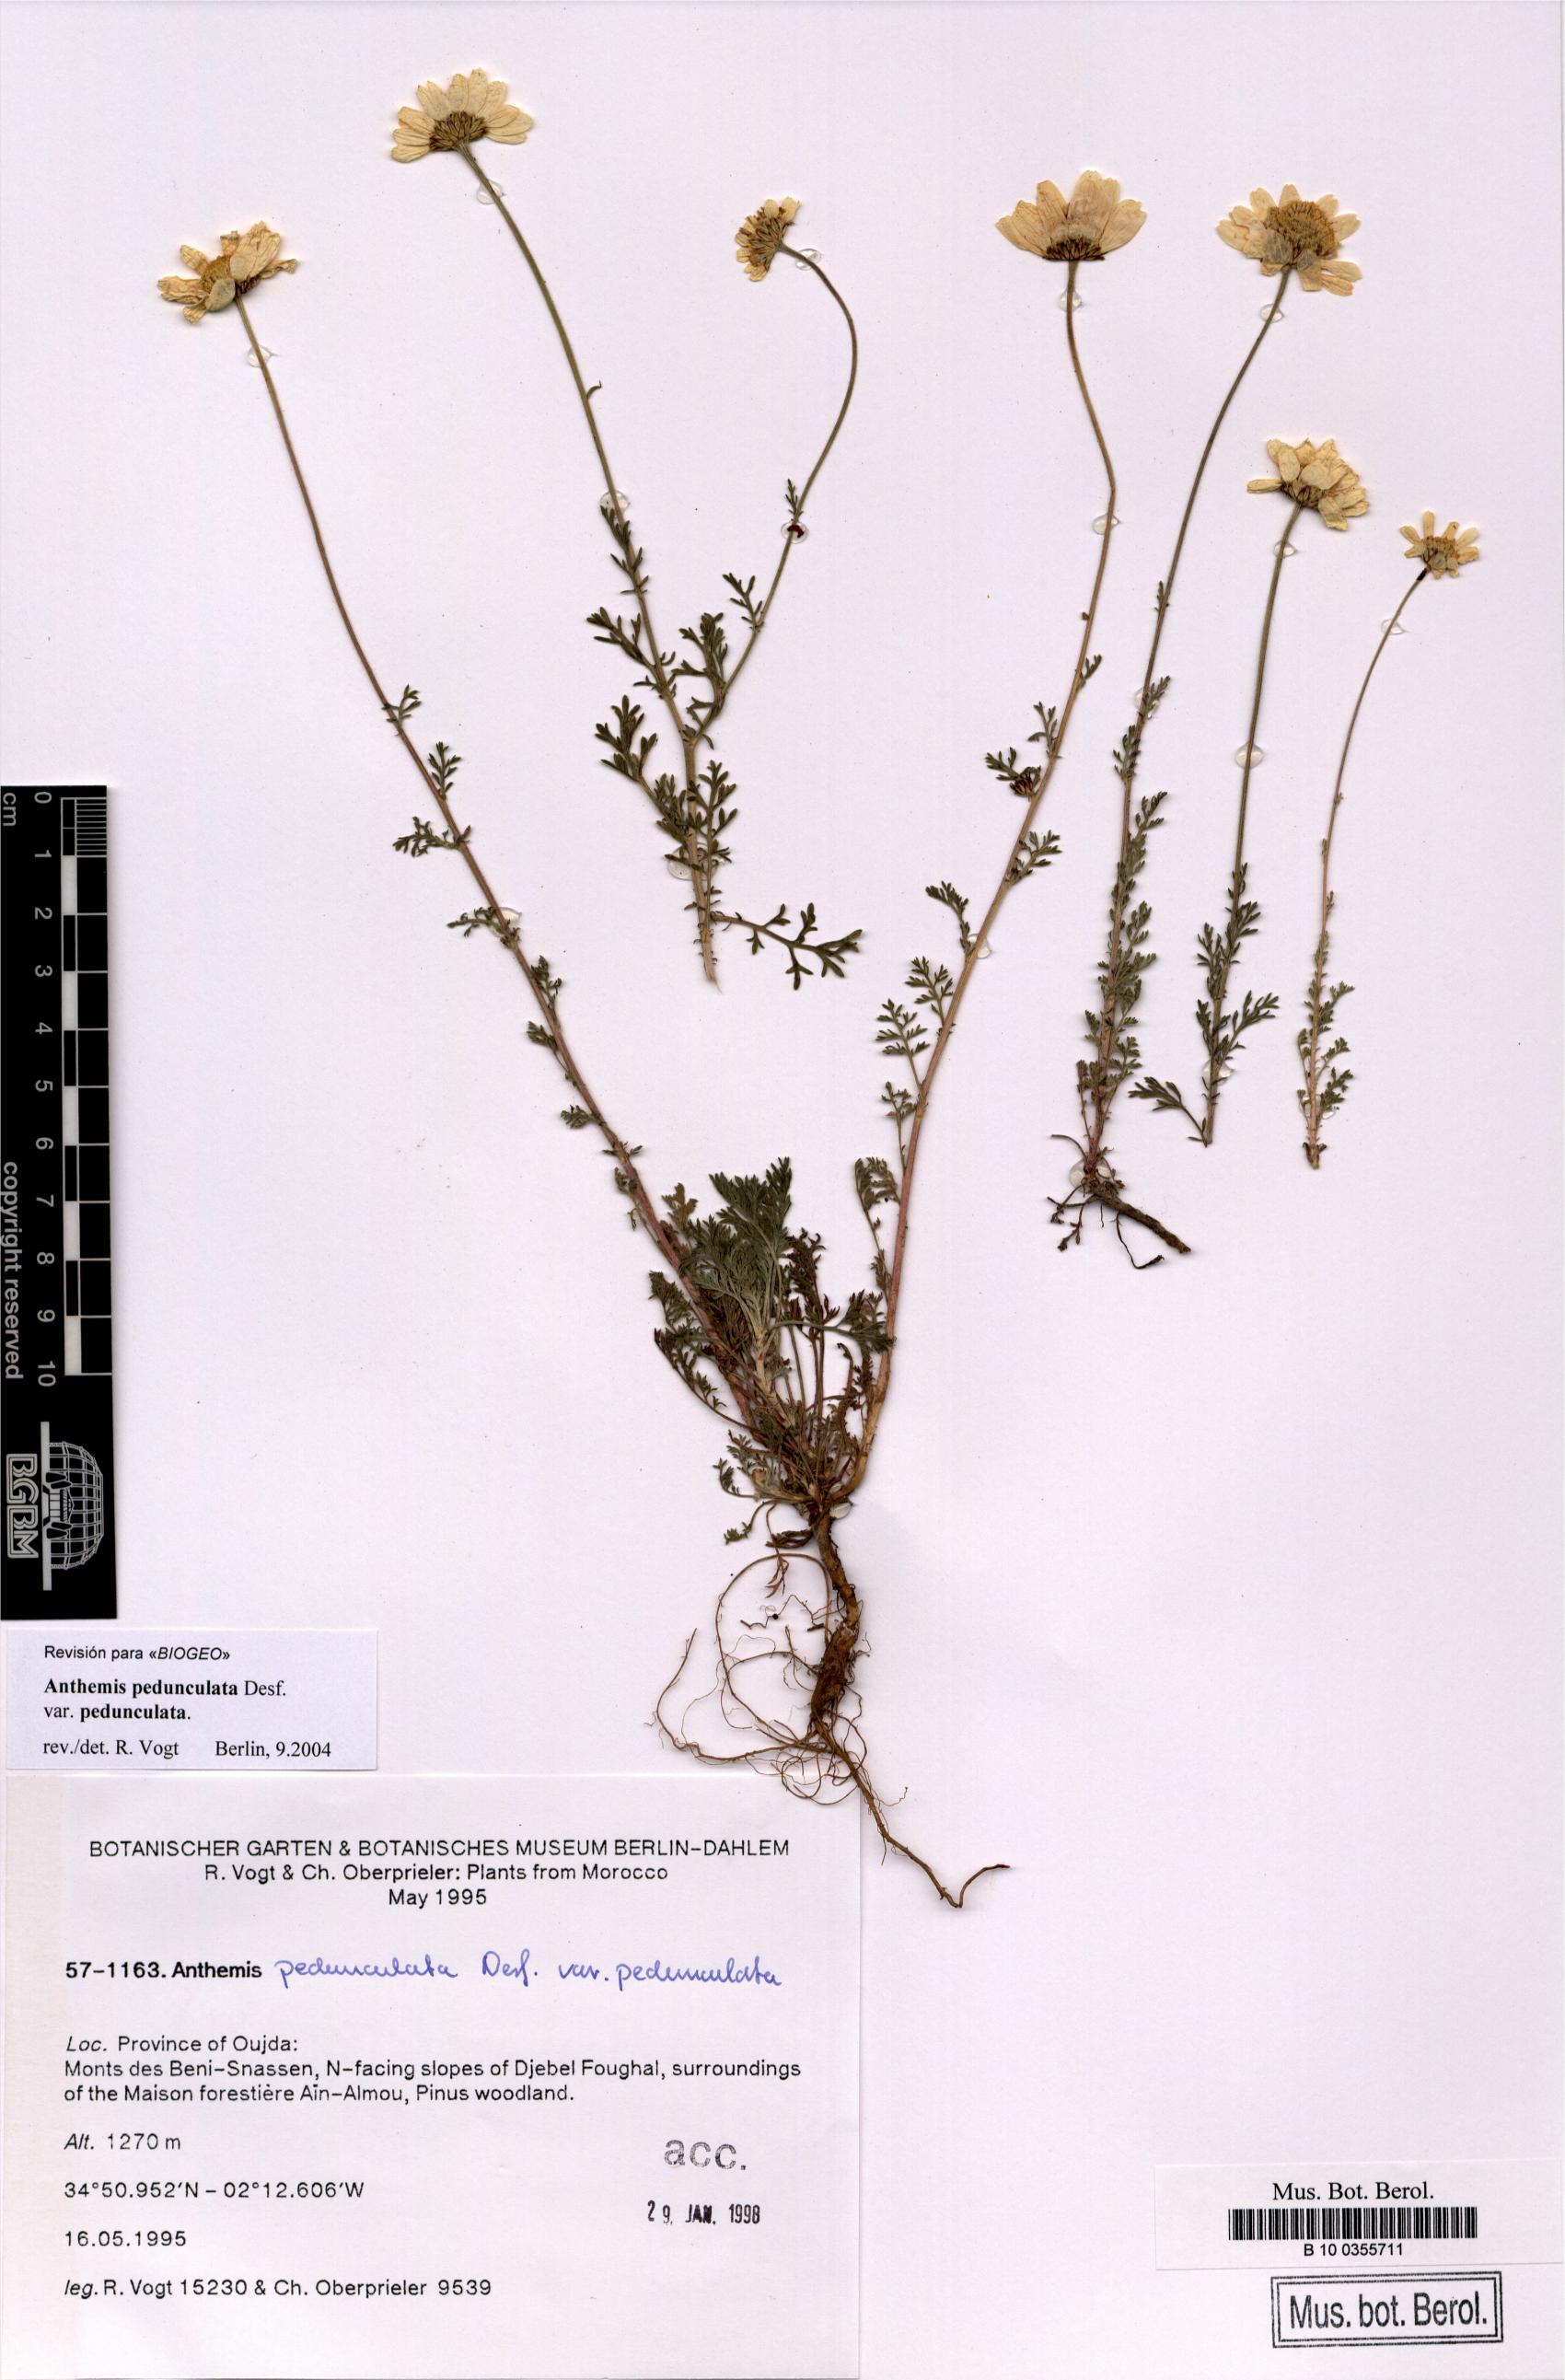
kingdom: Plantae
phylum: Tracheophyta
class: Magnoliopsida
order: Asterales
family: Asteraceae
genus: Anthemis
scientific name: Anthemis pedunculata
